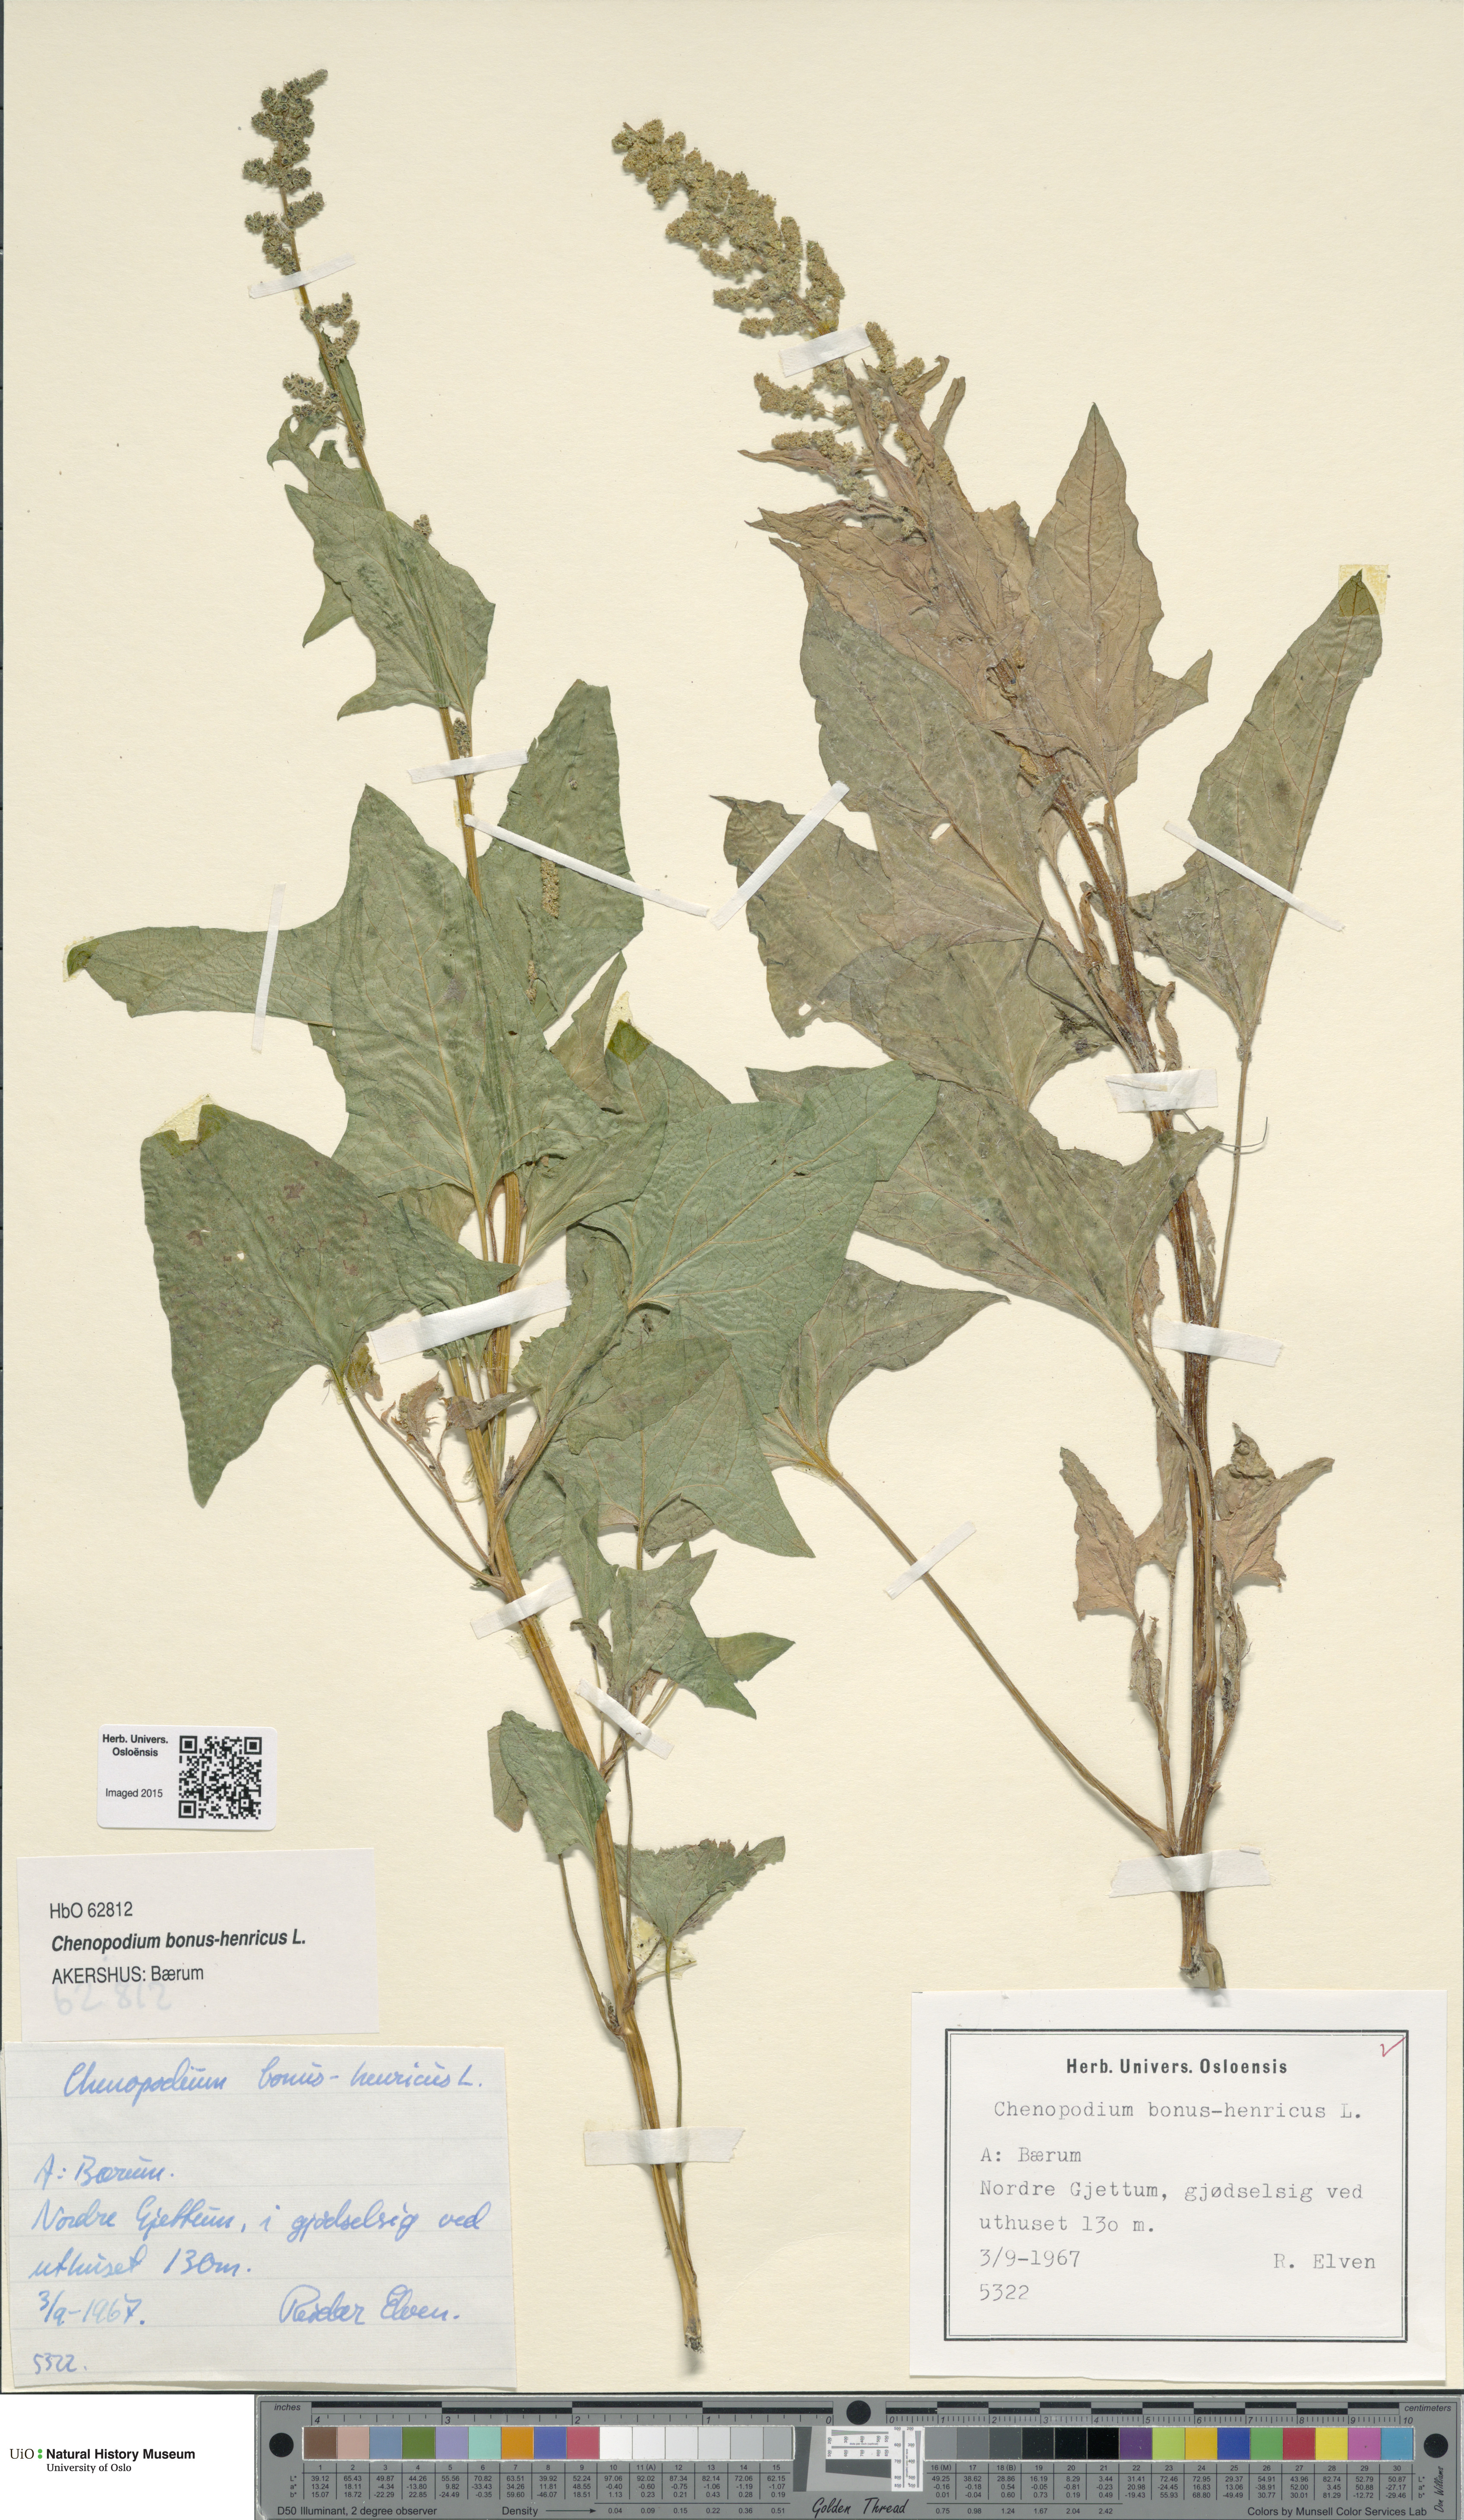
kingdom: Plantae
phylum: Tracheophyta
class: Magnoliopsida
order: Caryophyllales
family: Amaranthaceae
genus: Blitum
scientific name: Blitum bonus-henricus
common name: Good king henry
